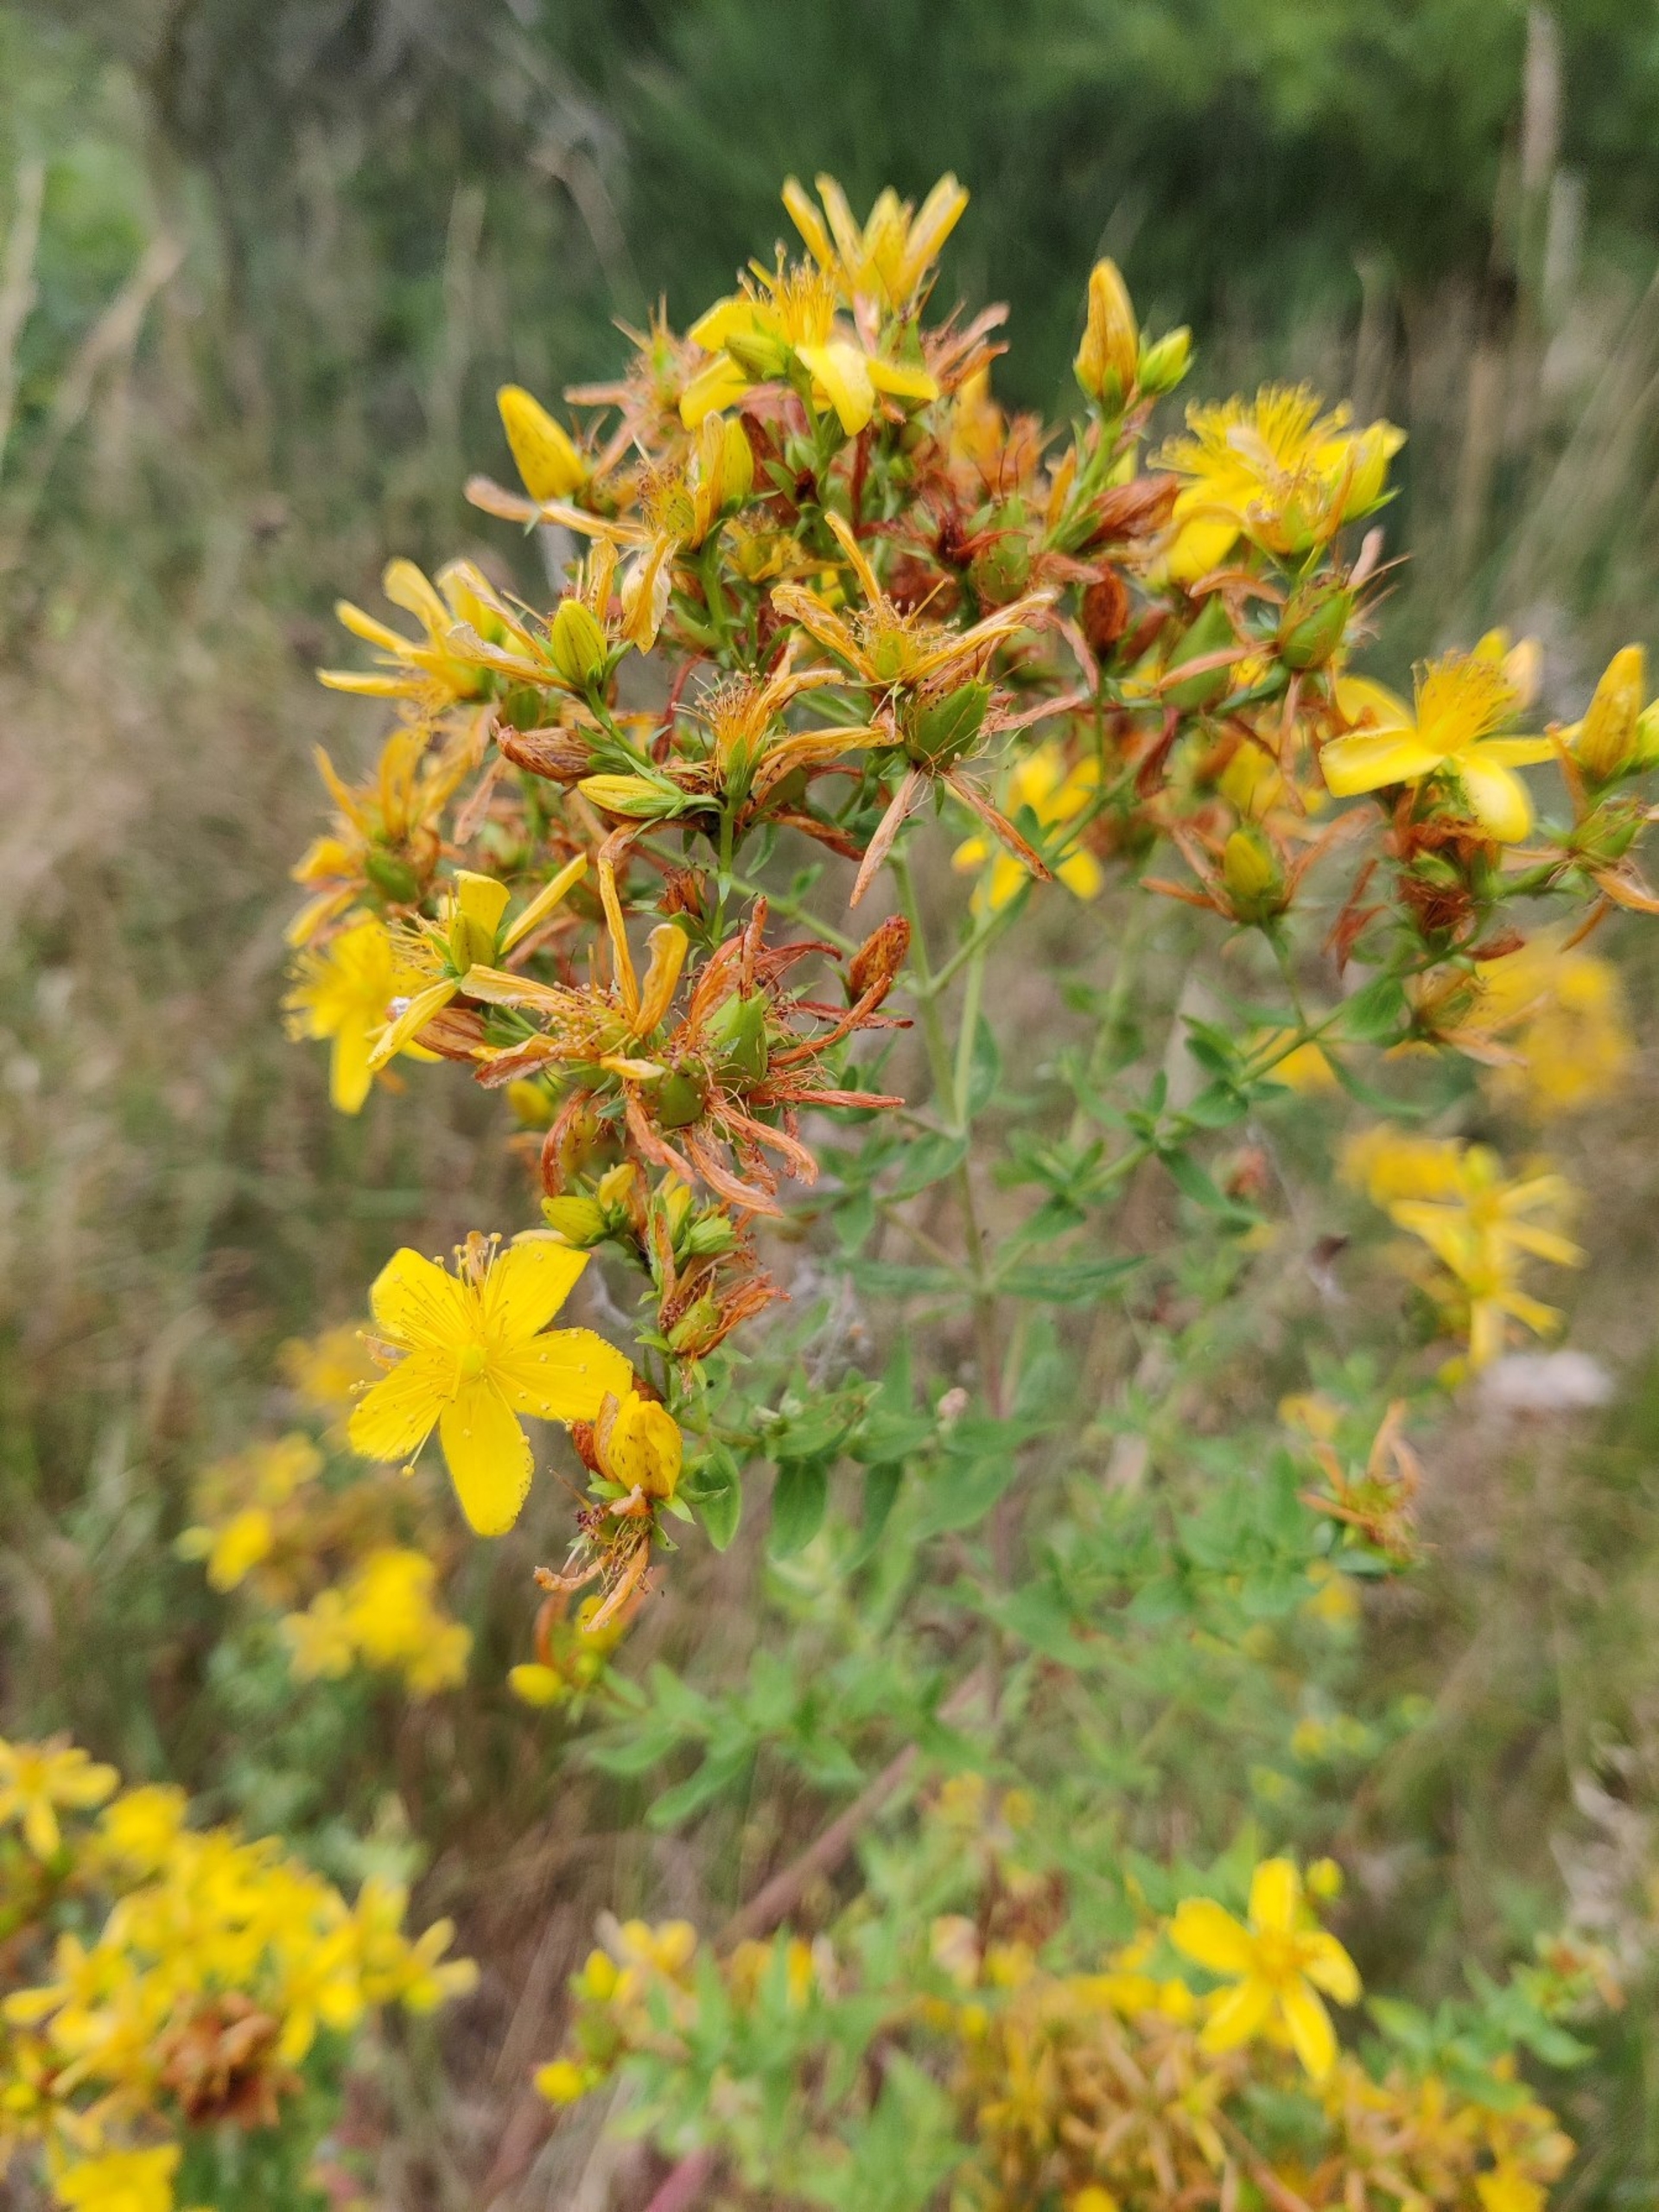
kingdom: Plantae
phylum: Tracheophyta
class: Magnoliopsida
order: Malpighiales
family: Hypericaceae
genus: Hypericum
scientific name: Hypericum perforatum
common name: Prikbladet perikon
